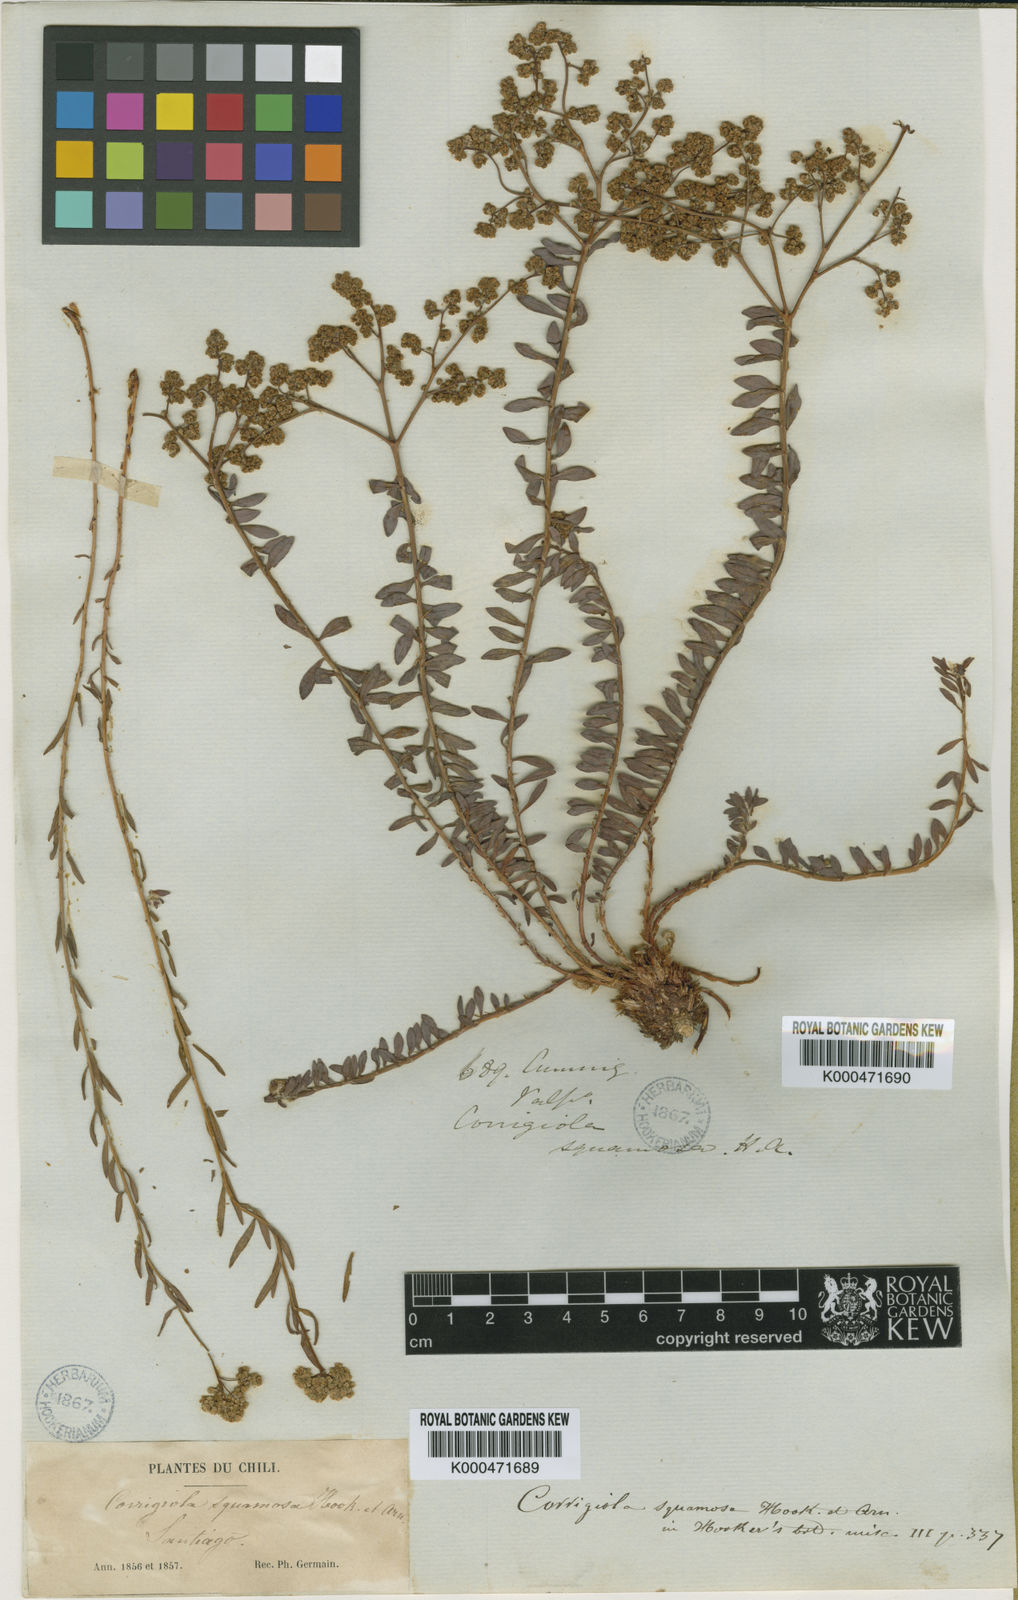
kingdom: Plantae
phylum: Tracheophyta
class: Magnoliopsida
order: Caryophyllales
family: Caryophyllaceae
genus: Corrigiola
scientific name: Corrigiola squamosa
